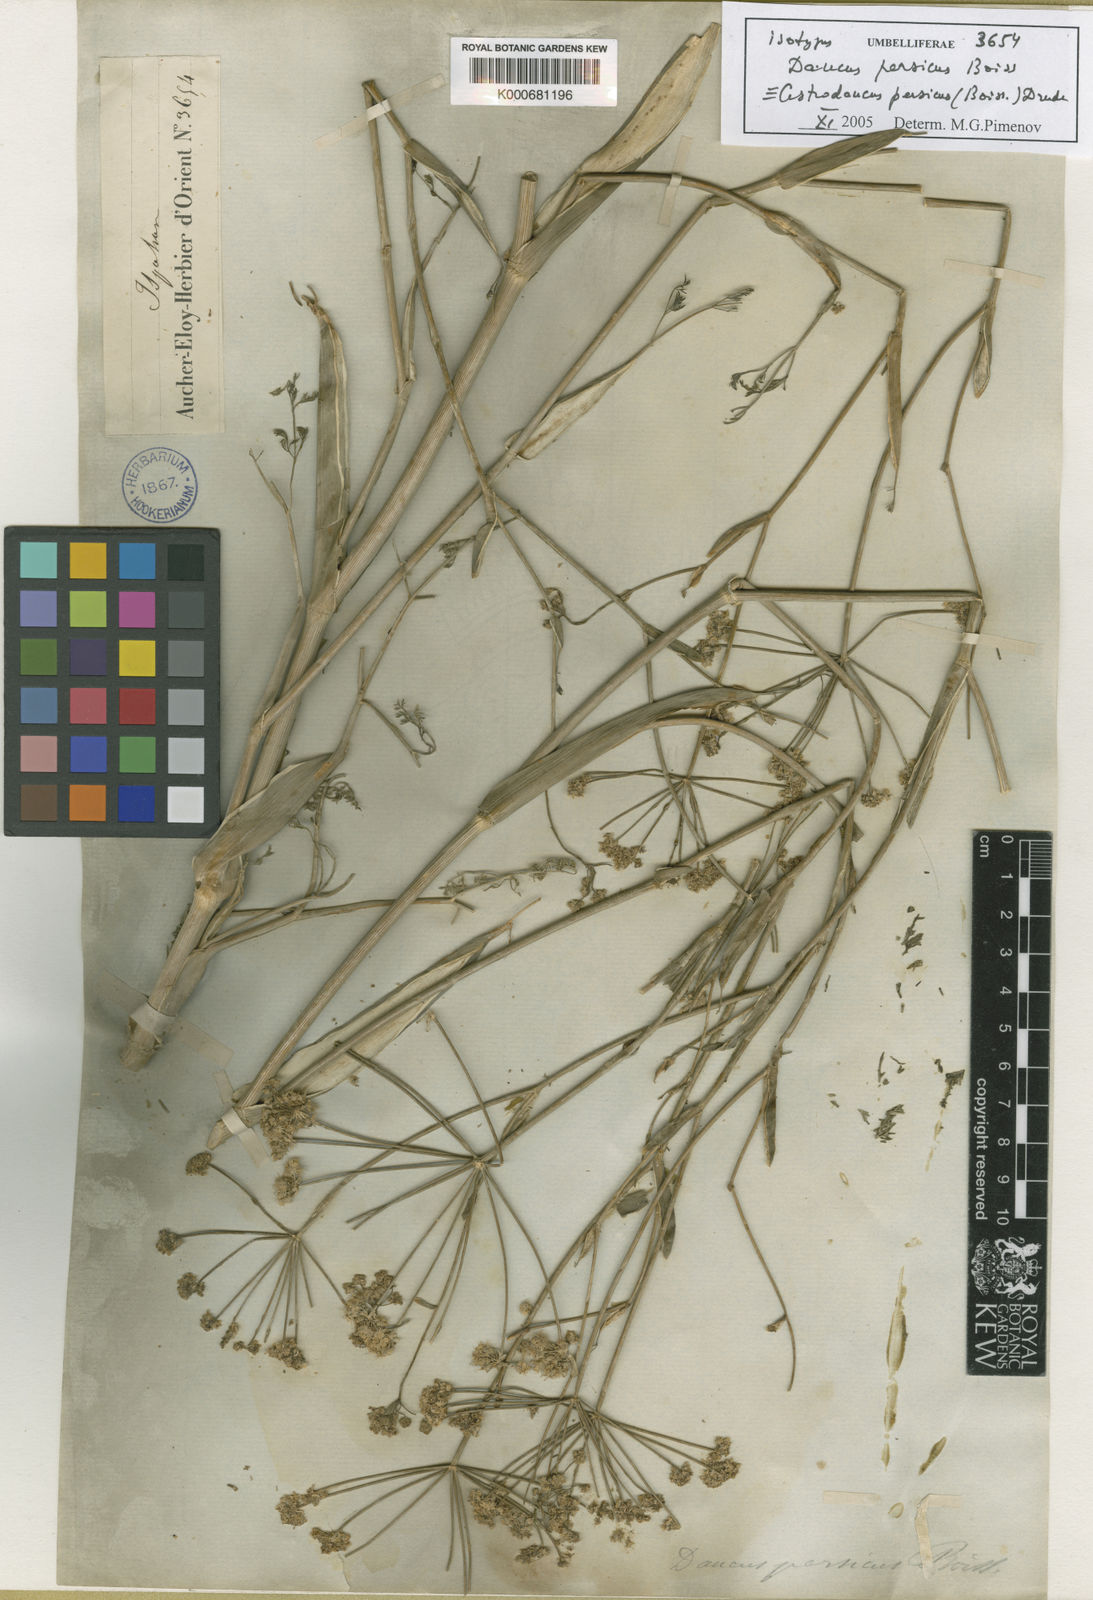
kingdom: Plantae
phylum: Tracheophyta
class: Magnoliopsida
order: Apiales
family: Apiaceae
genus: Astrodaucus
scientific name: Astrodaucus persicus
